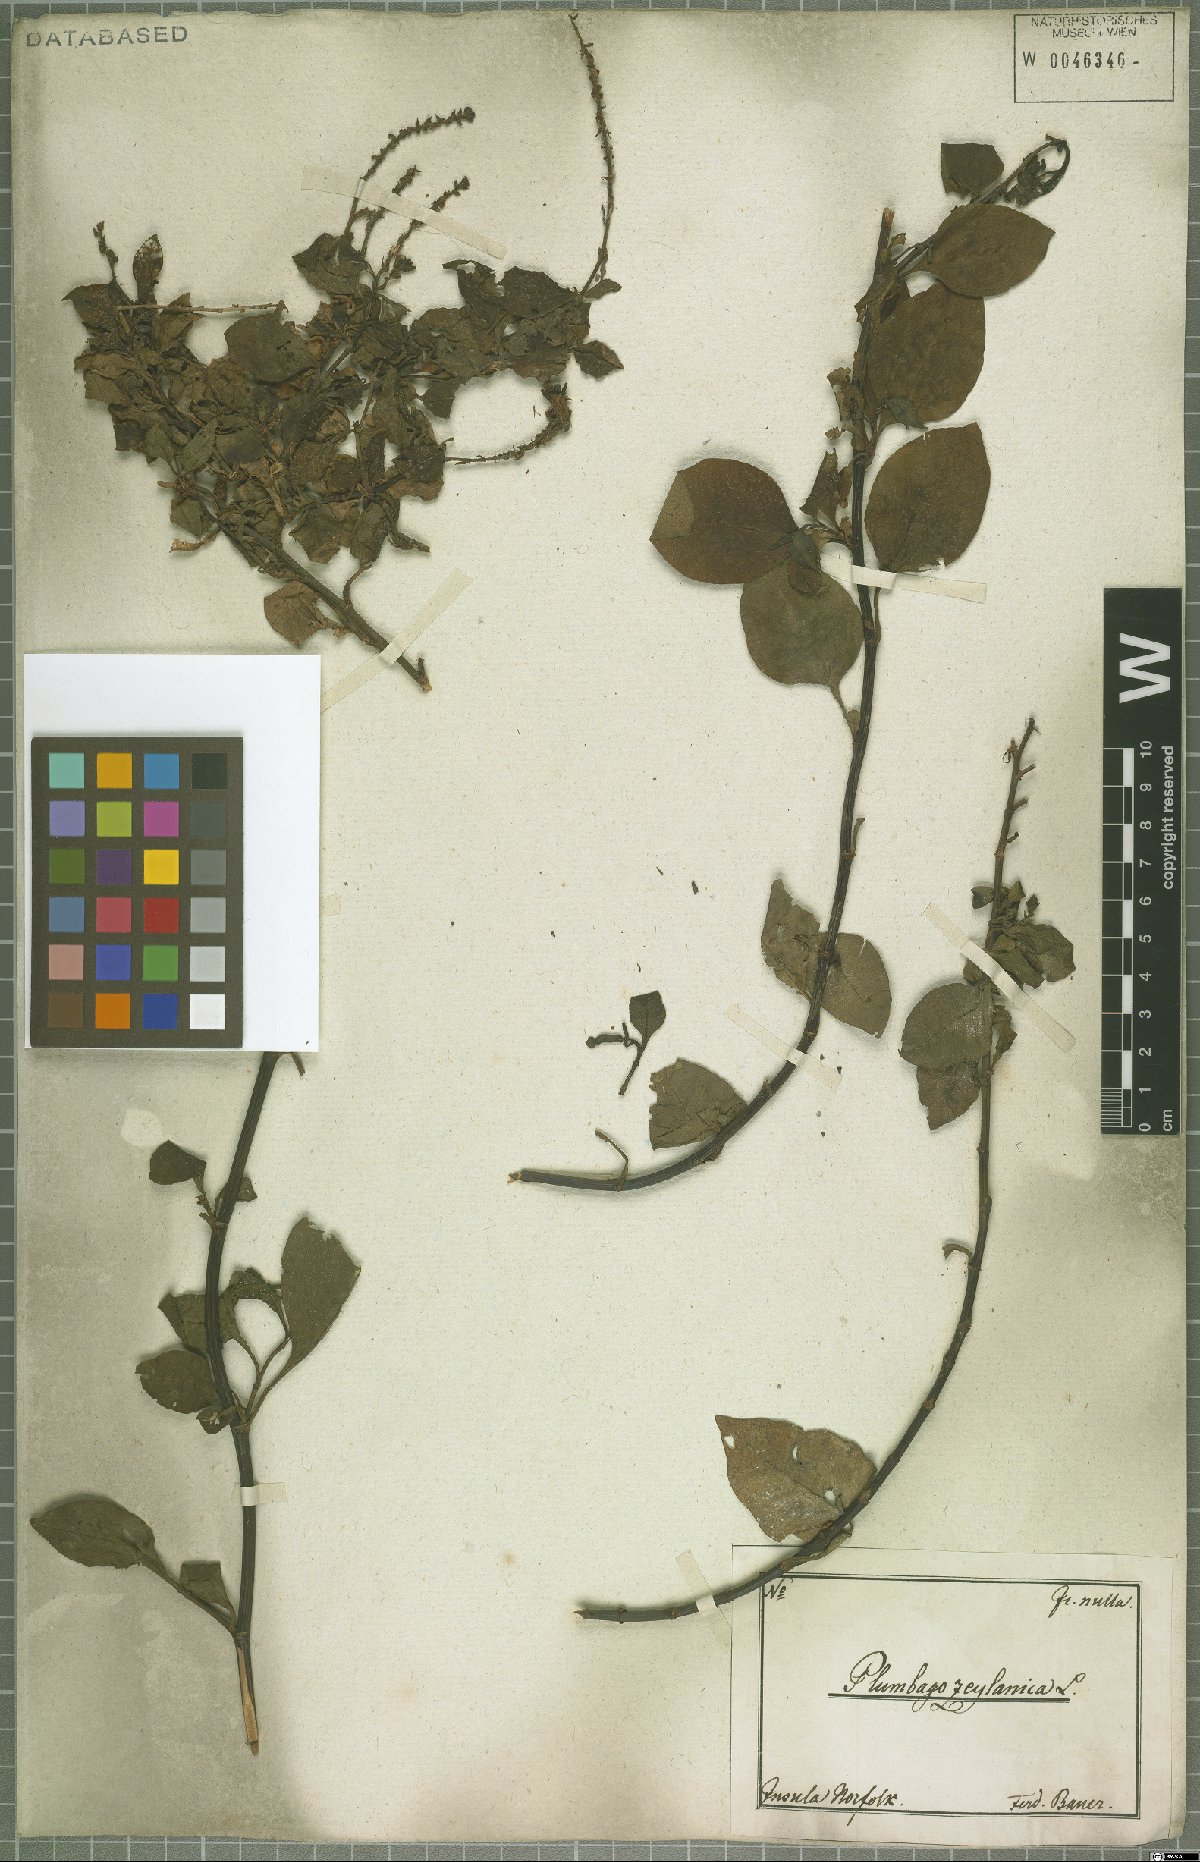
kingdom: Plantae
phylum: Tracheophyta
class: Magnoliopsida
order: Caryophyllales
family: Plumbaginaceae
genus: Plumbago
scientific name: Plumbago zeylanica
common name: Doctorbush
